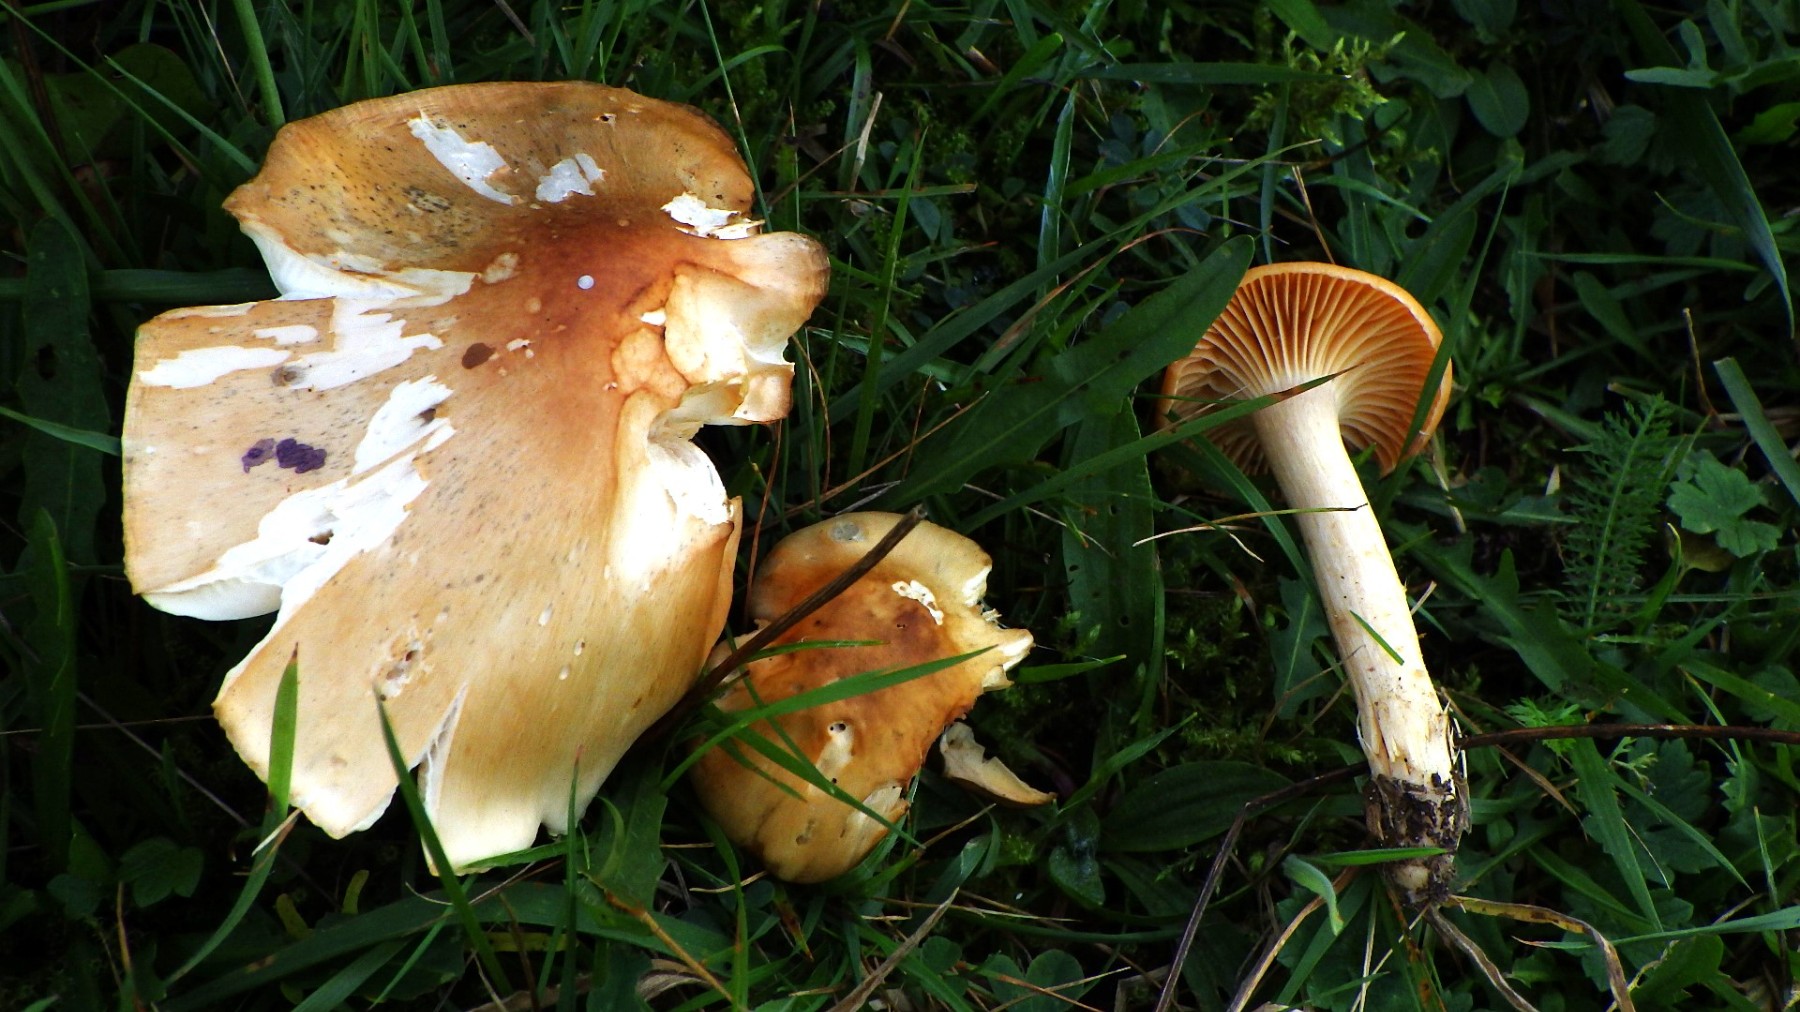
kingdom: Fungi
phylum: Basidiomycota
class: Agaricomycetes
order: Agaricales
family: Hygrophoraceae
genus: Cuphophyllus
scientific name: Cuphophyllus pratensis
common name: eng-vokshat
